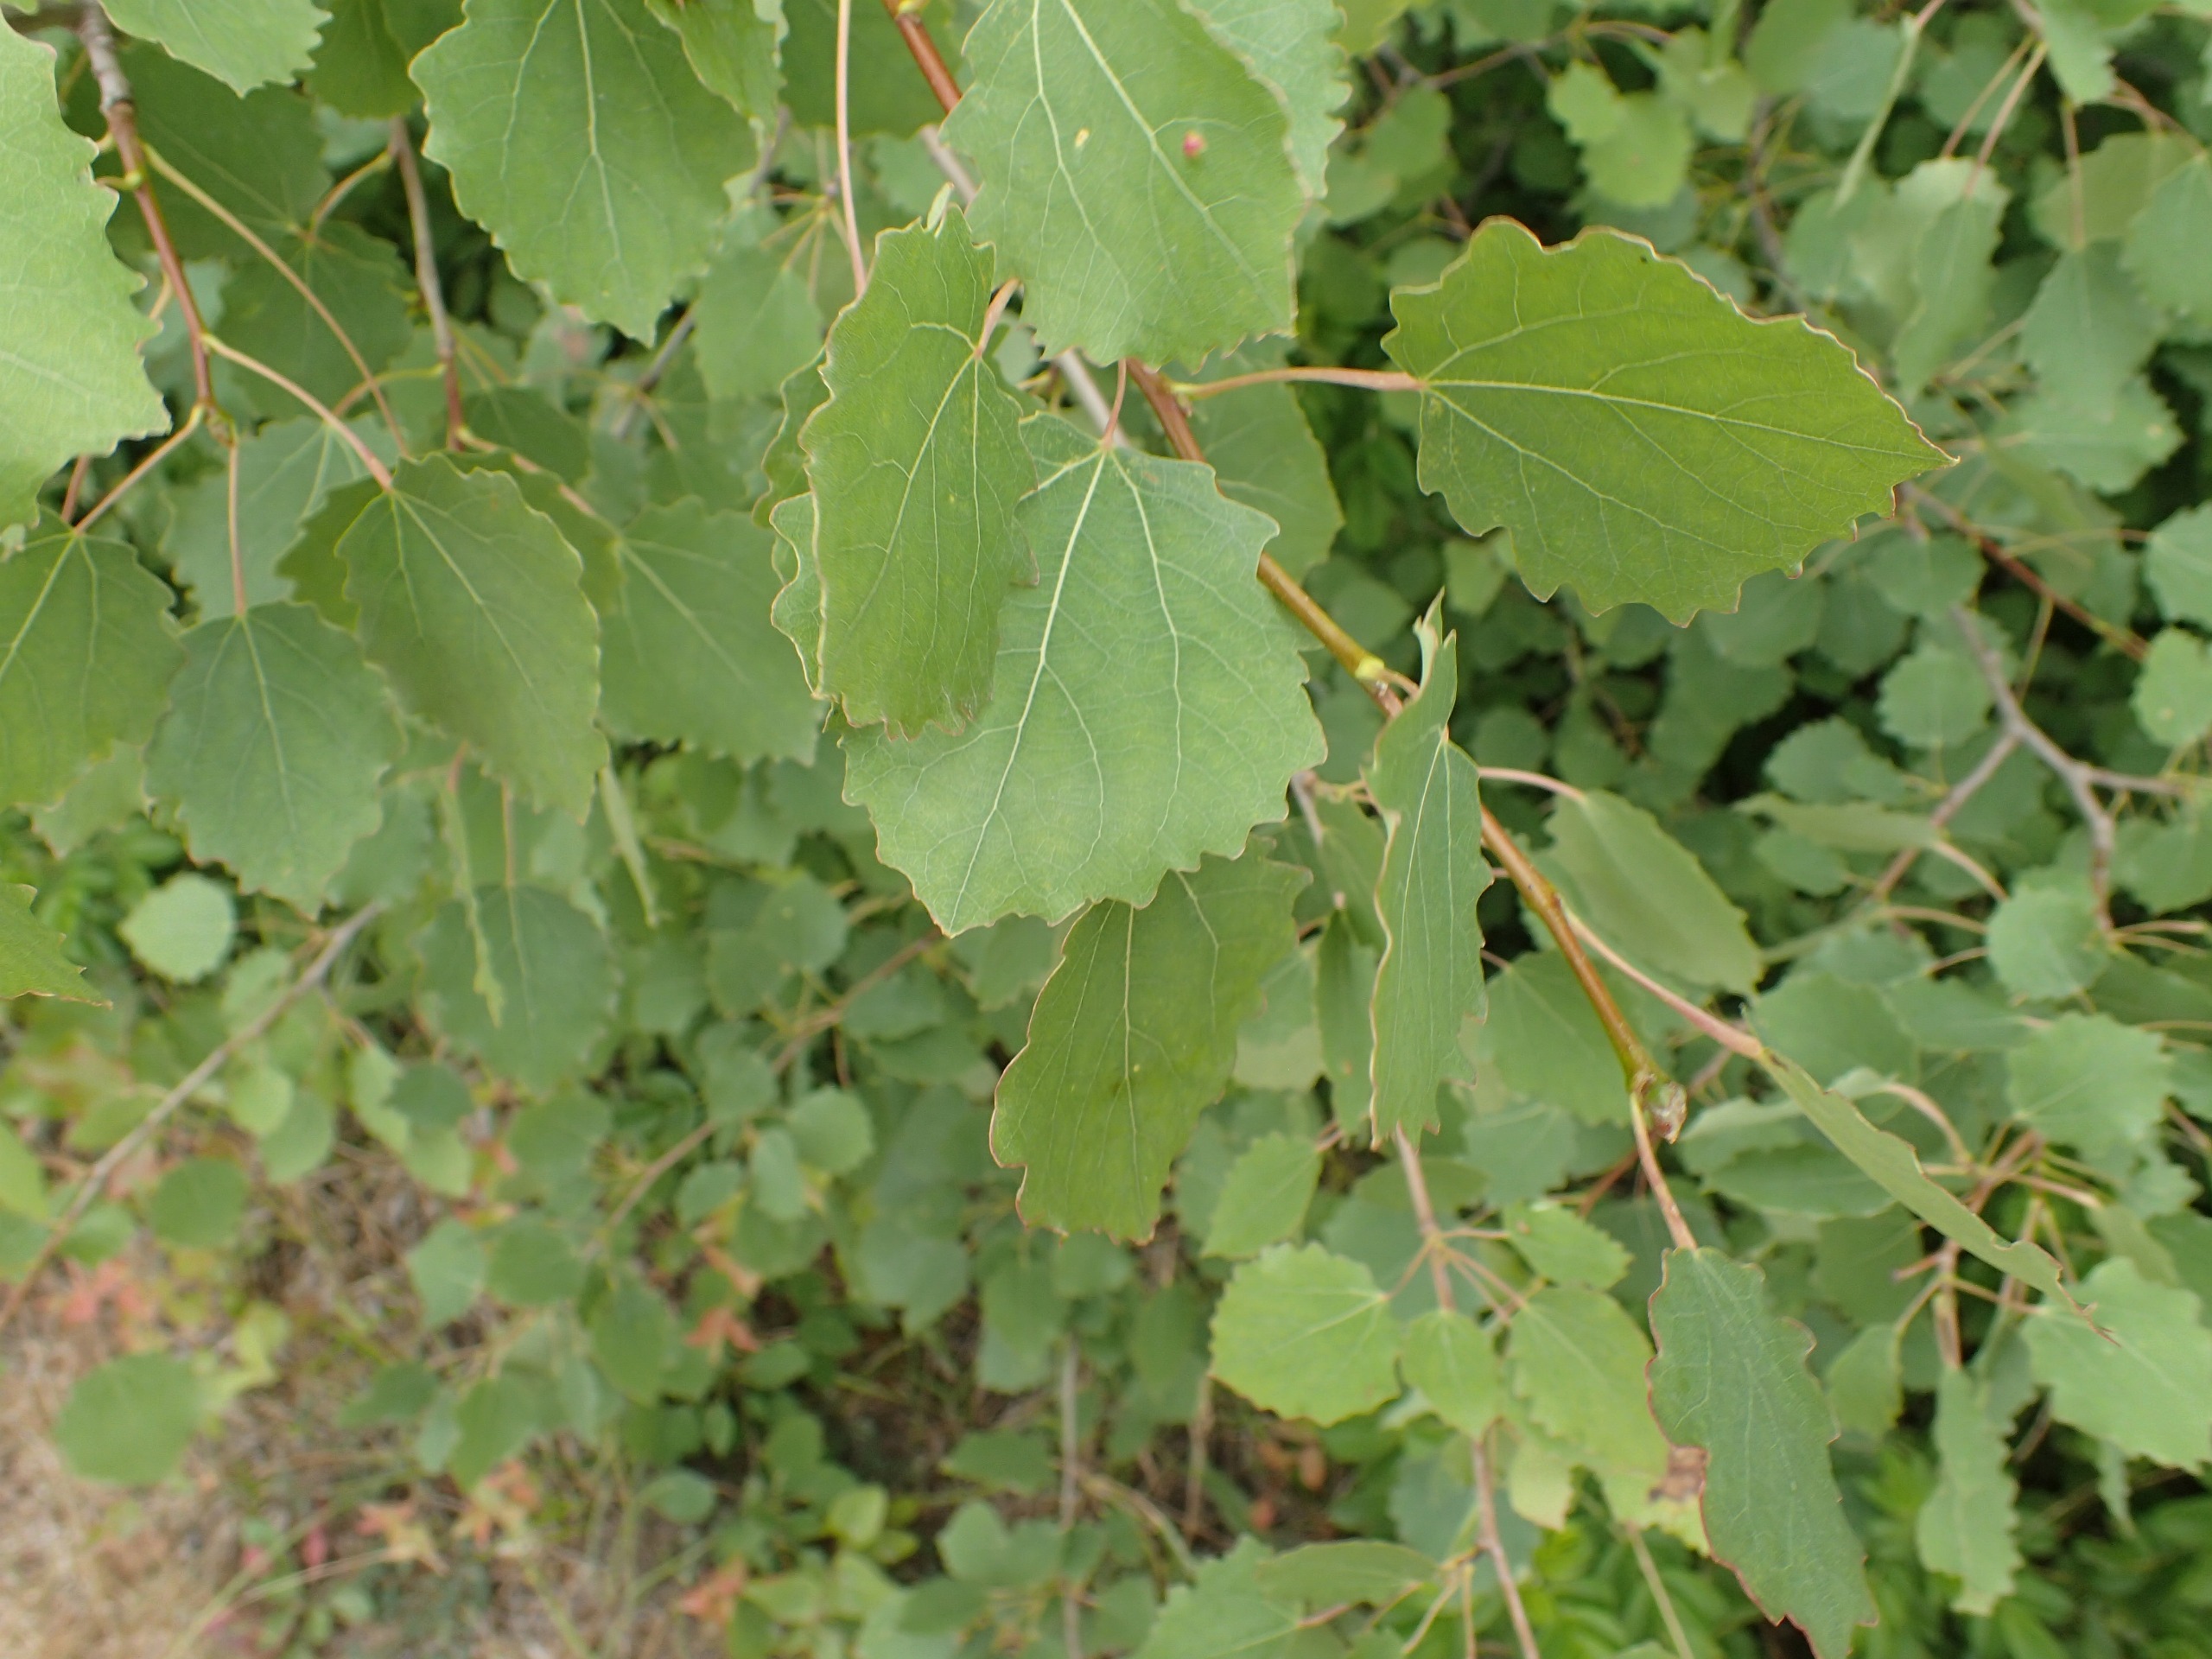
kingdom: Plantae
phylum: Tracheophyta
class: Magnoliopsida
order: Malpighiales
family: Salicaceae
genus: Populus
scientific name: Populus tremula
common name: Bævreasp
